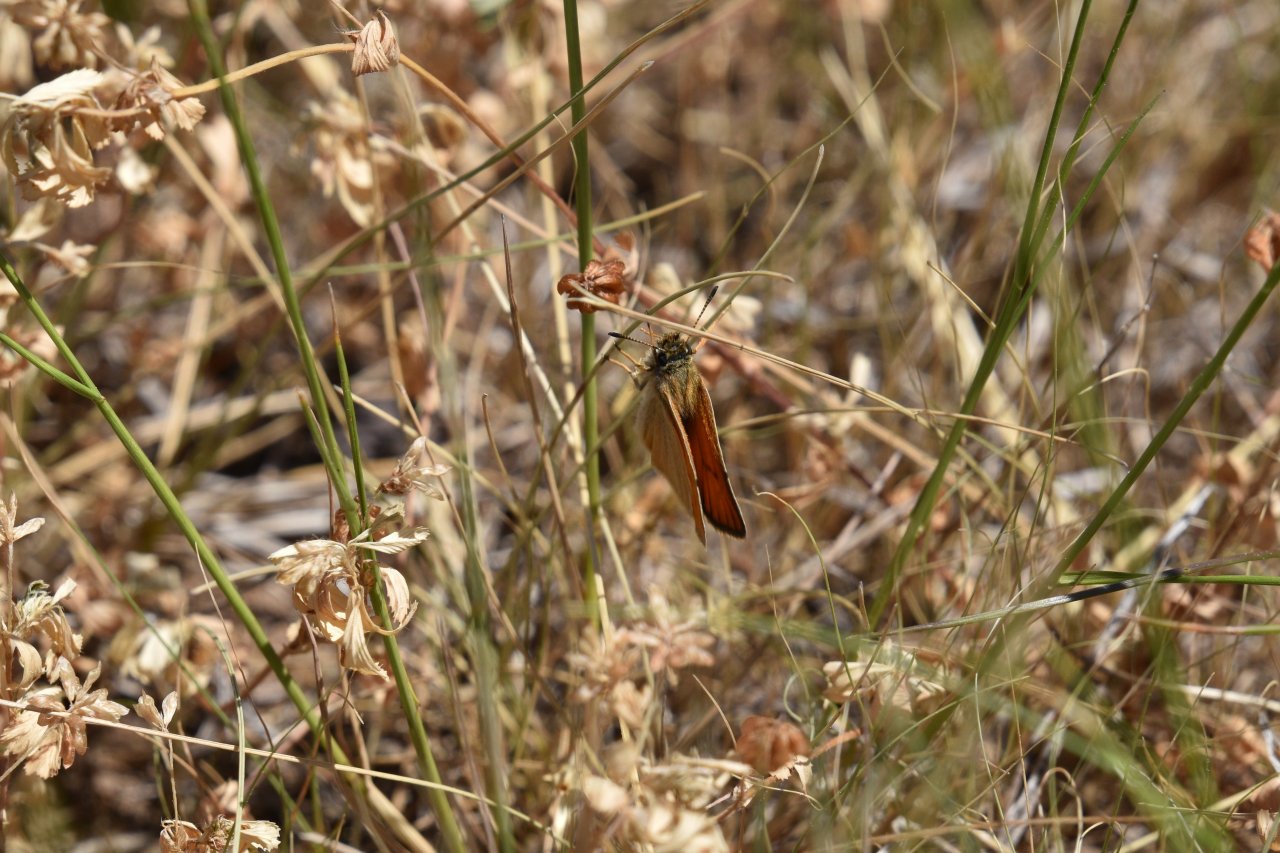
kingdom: Animalia
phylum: Arthropoda
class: Insecta
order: Lepidoptera
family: Hesperiidae
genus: Thymelicus
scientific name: Thymelicus lineola
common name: European Skipper
